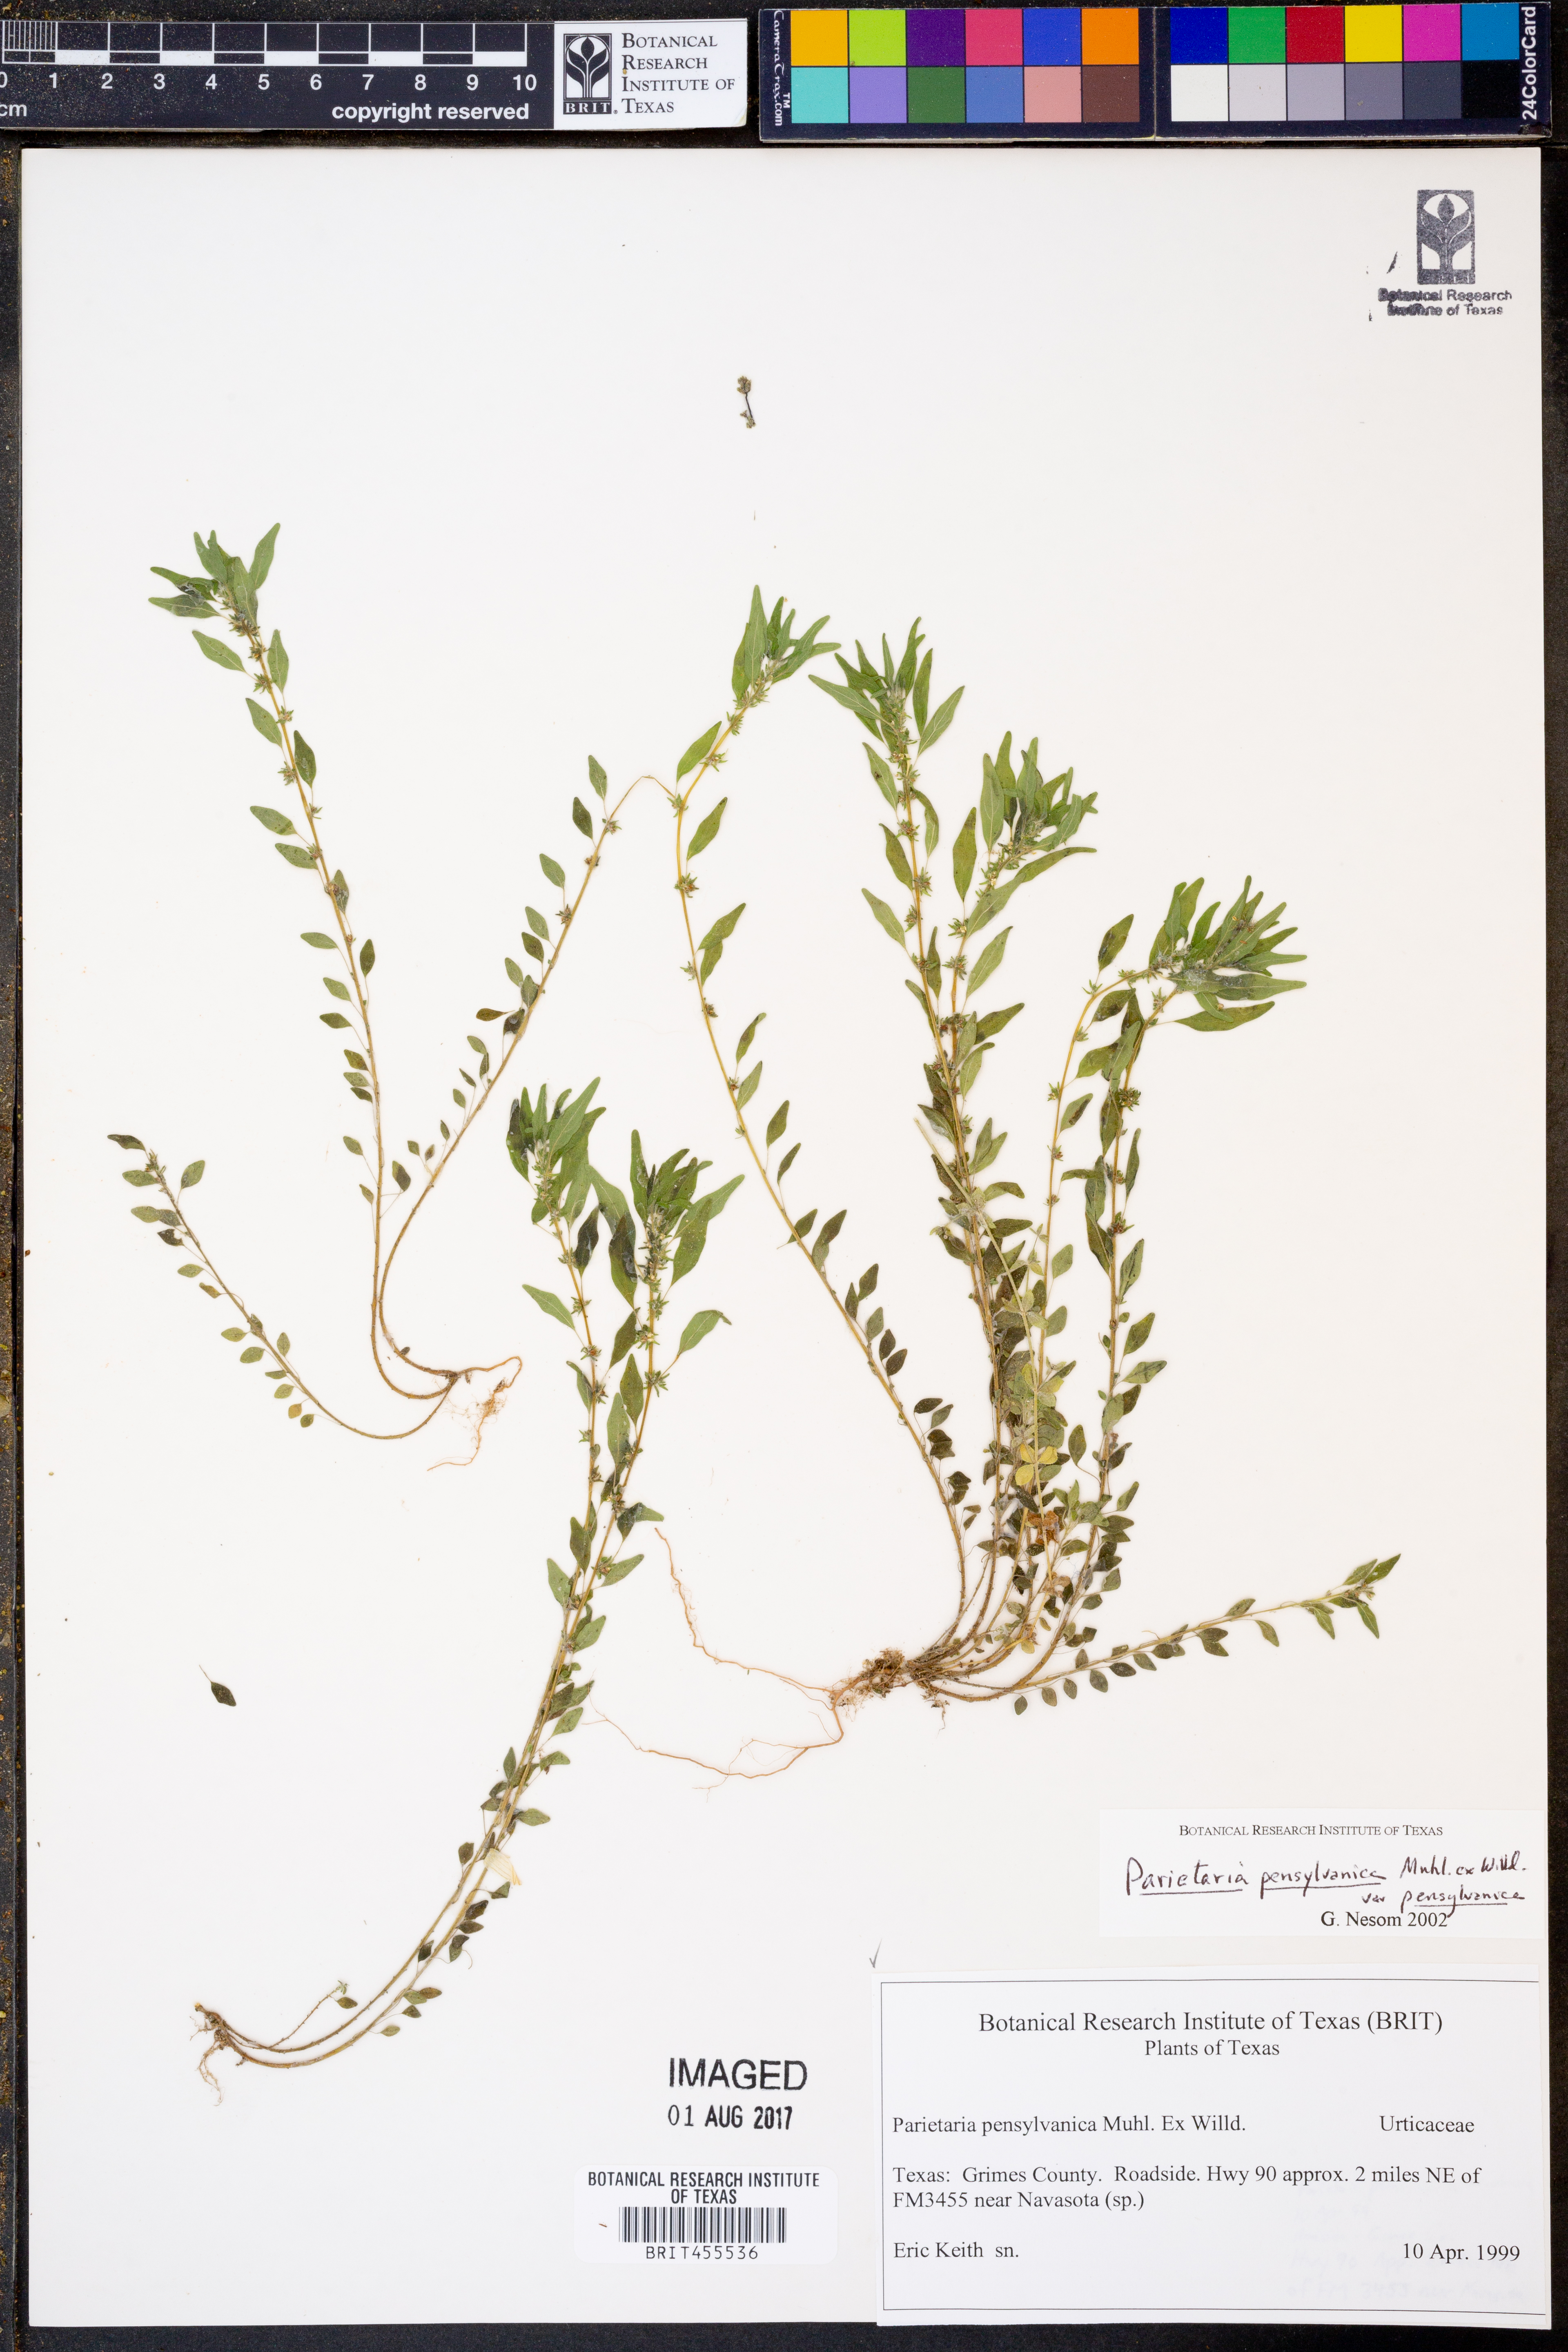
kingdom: Plantae
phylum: Tracheophyta
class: Magnoliopsida
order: Rosales
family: Urticaceae
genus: Parietaria
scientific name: Parietaria pensylvanica
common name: Pennsylvania pellitory
